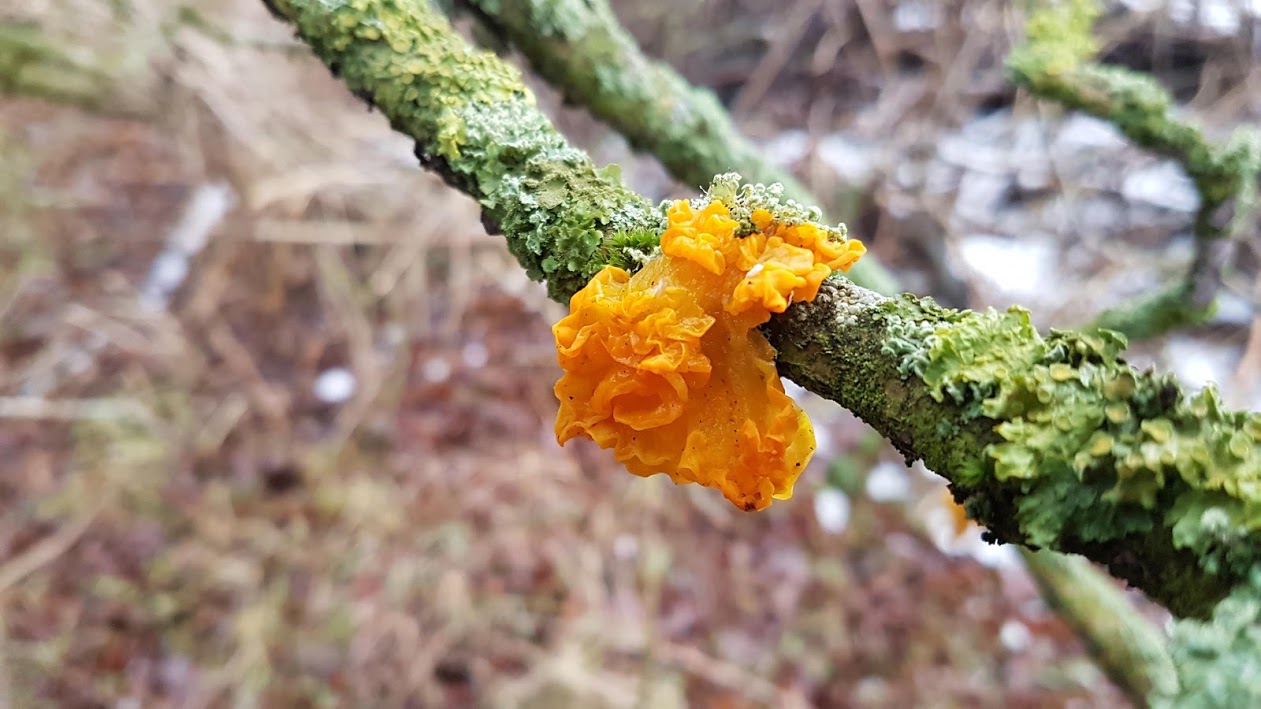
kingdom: Fungi
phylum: Basidiomycota
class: Tremellomycetes
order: Tremellales
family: Tremellaceae
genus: Tremella
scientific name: Tremella mesenterica
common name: gul bævresvamp
